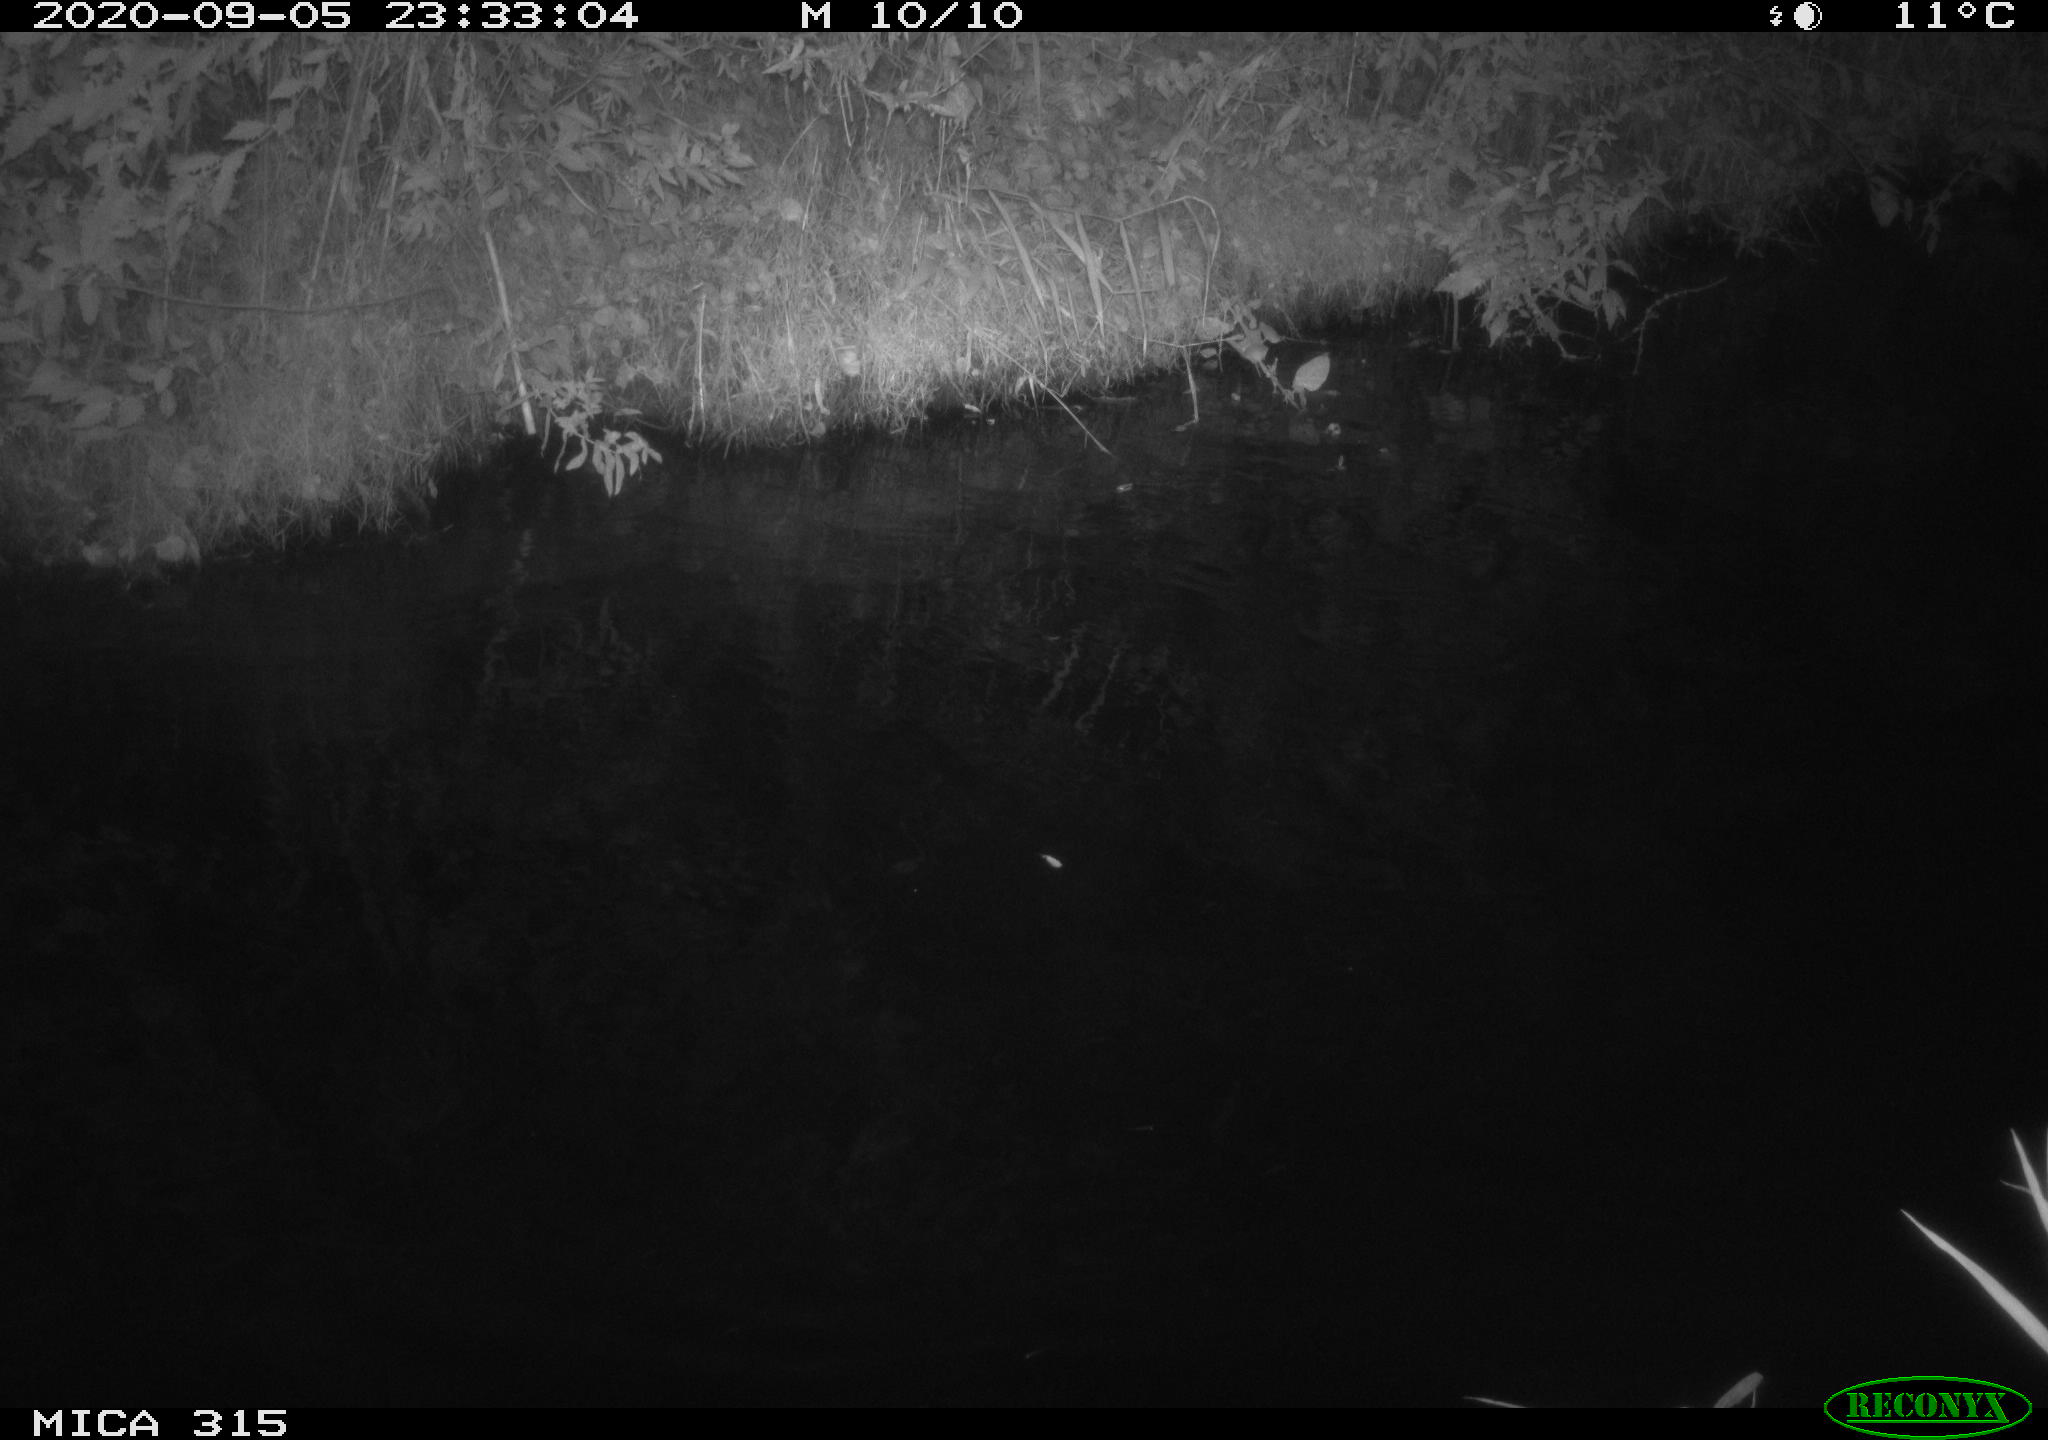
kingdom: Animalia
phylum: Chordata
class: Aves
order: Anseriformes
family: Anatidae
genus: Anas
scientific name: Anas platyrhynchos
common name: Mallard
